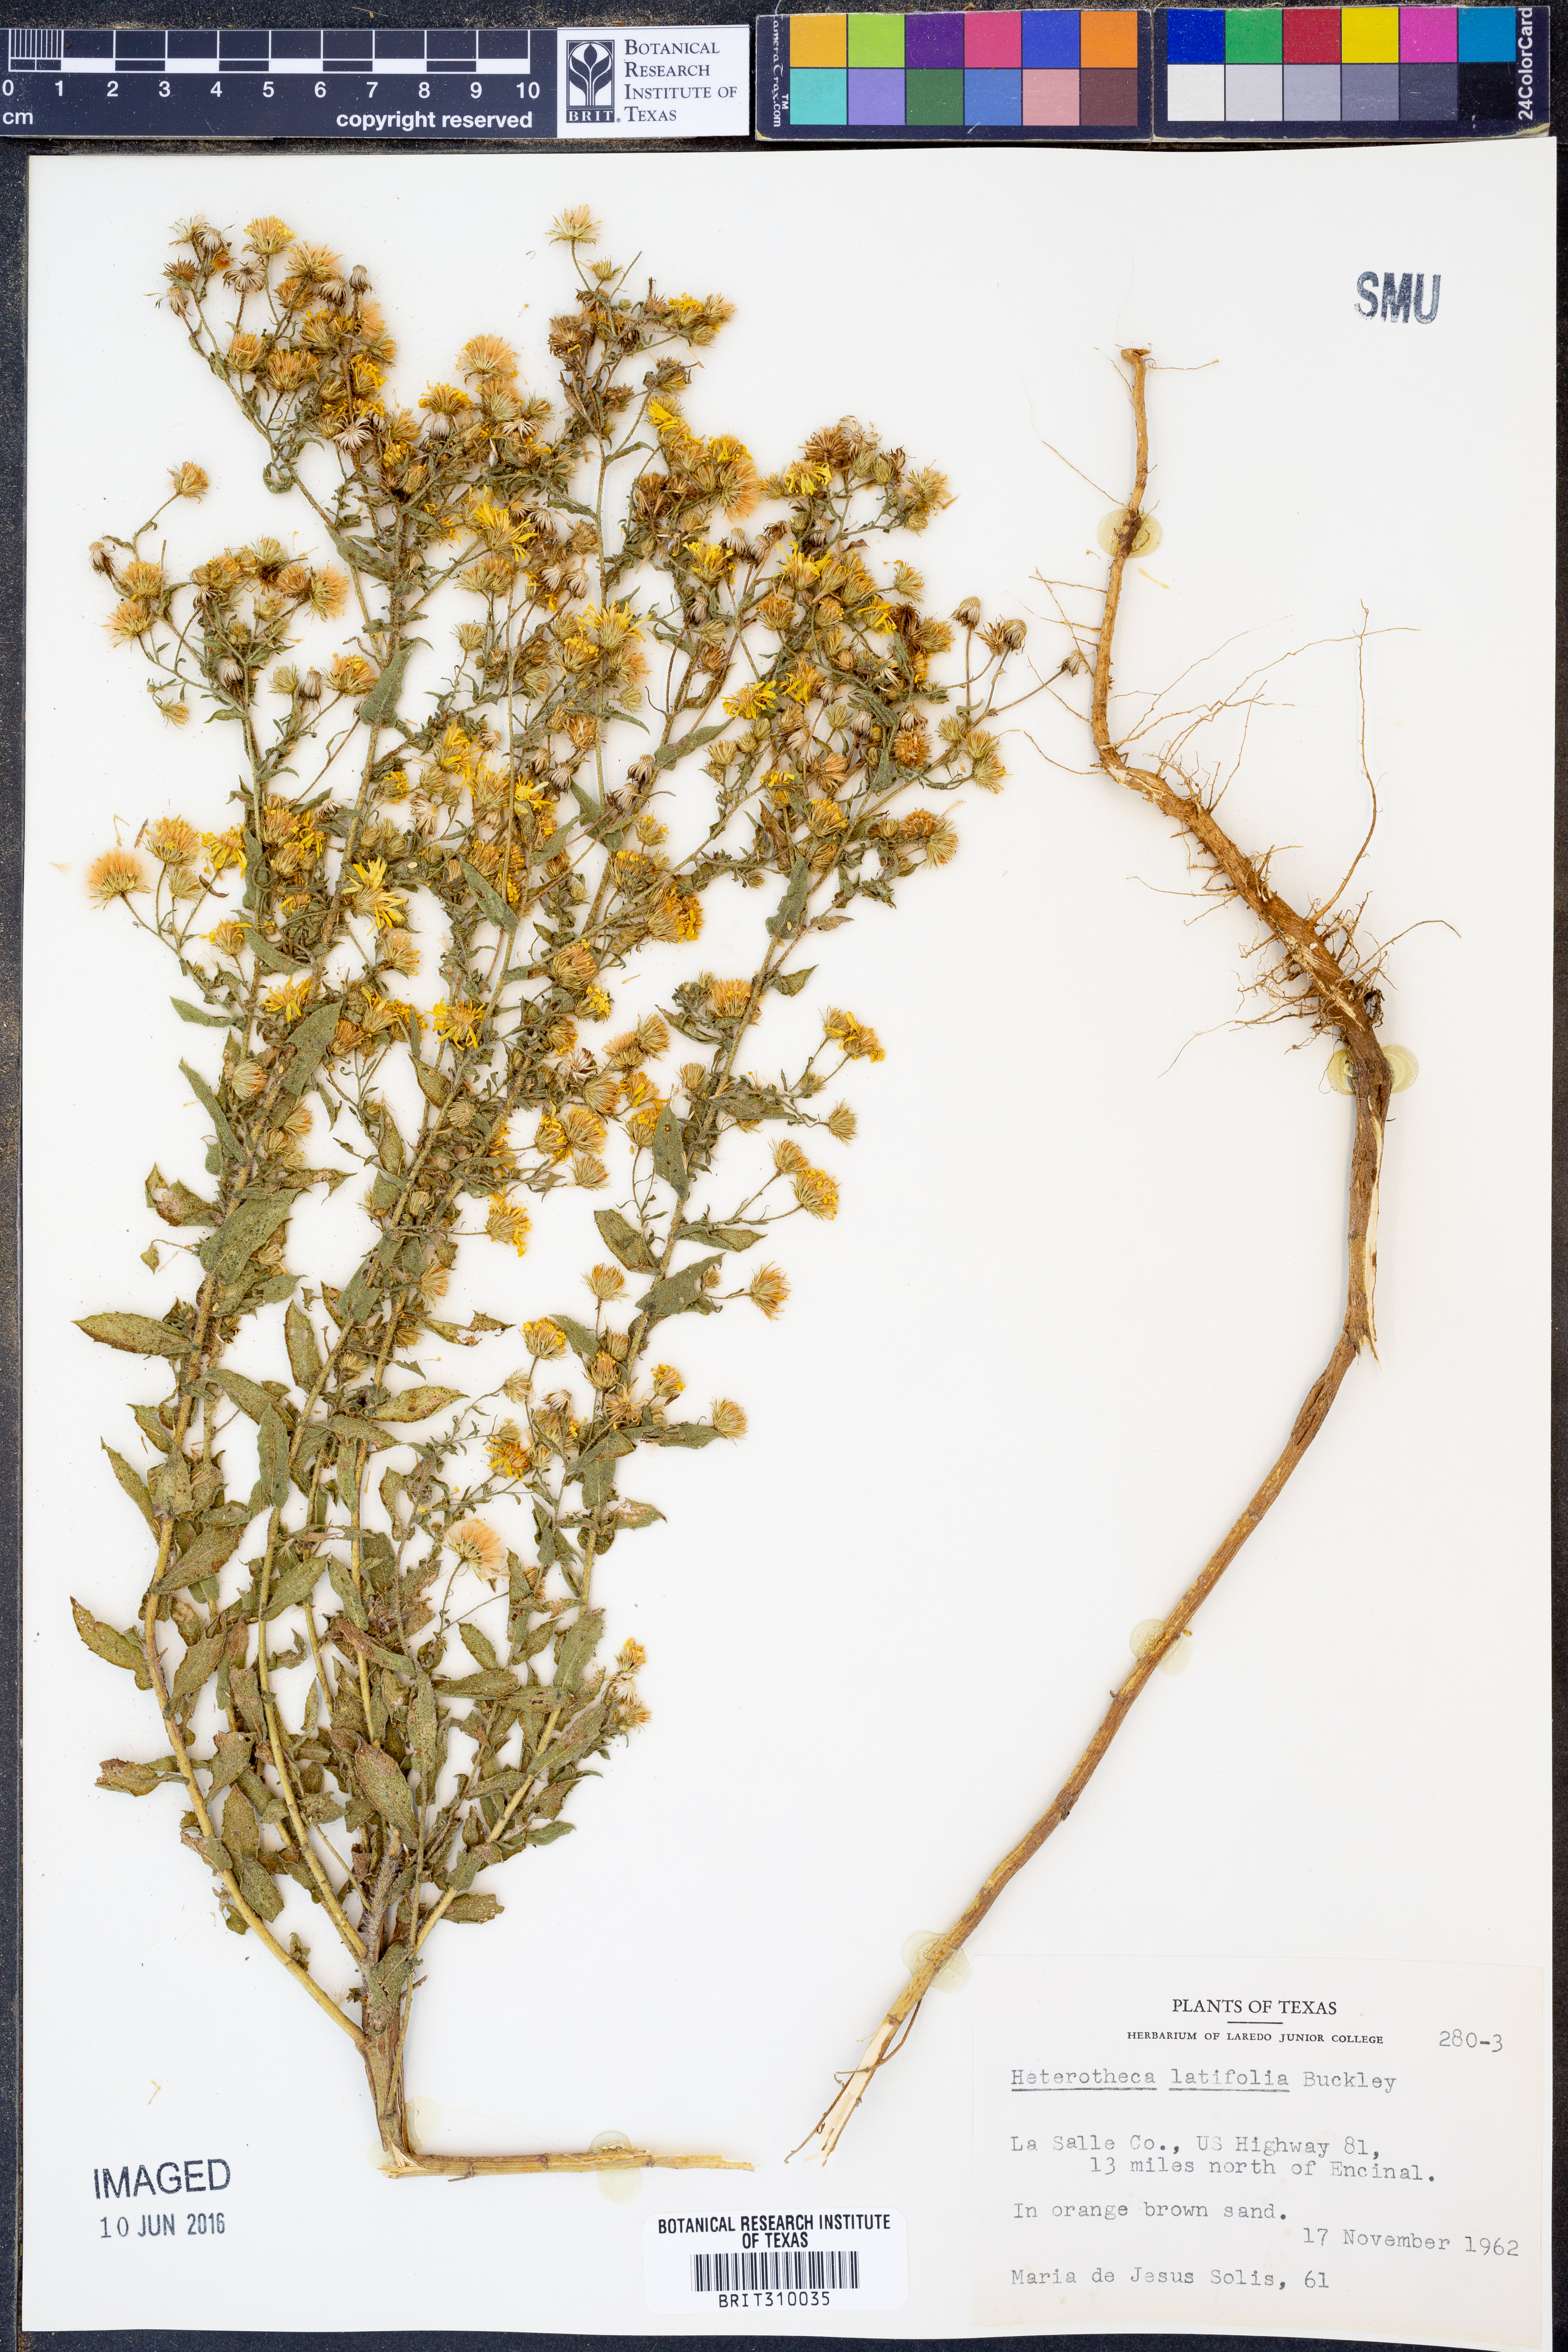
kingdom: Plantae
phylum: Tracheophyta
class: Magnoliopsida
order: Asterales
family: Asteraceae
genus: Heterotheca
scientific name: Heterotheca subaxillaris
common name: Camphorweed
